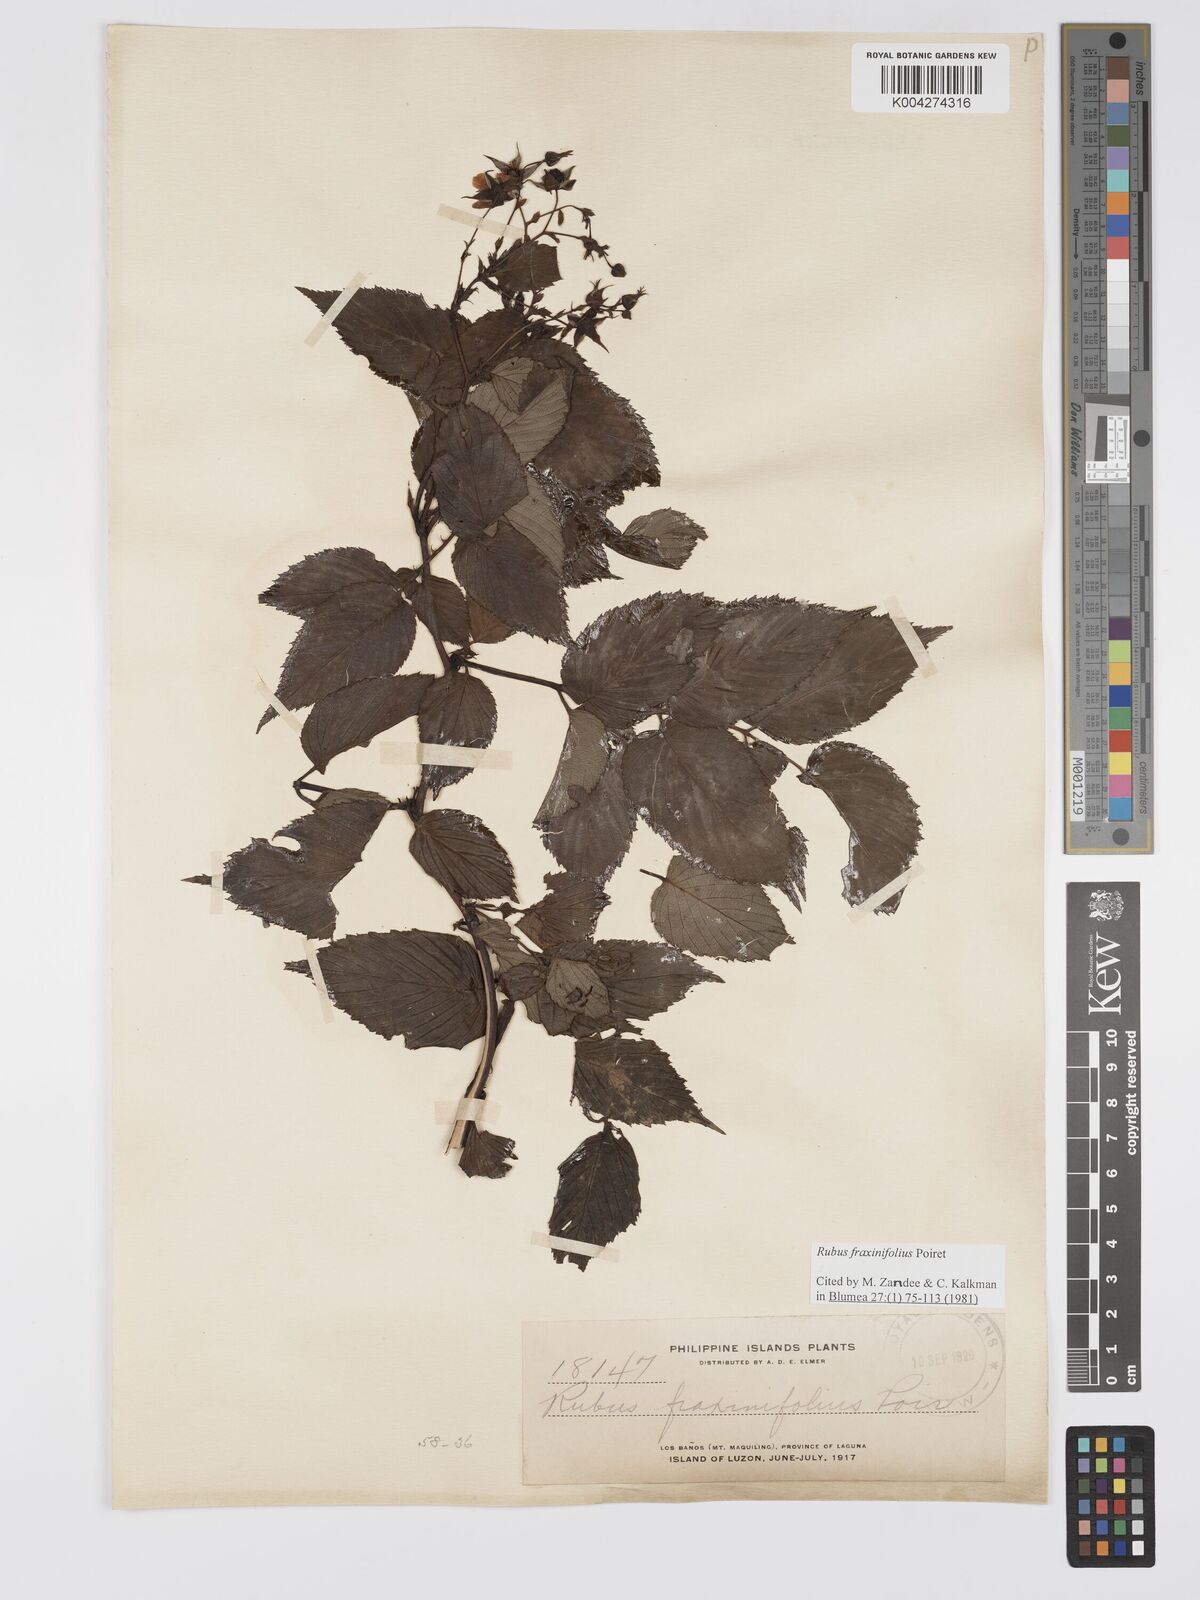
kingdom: Plantae
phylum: Tracheophyta
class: Magnoliopsida
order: Rosales
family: Rosaceae
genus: Rubus
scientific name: Rubus fraxinifolius
